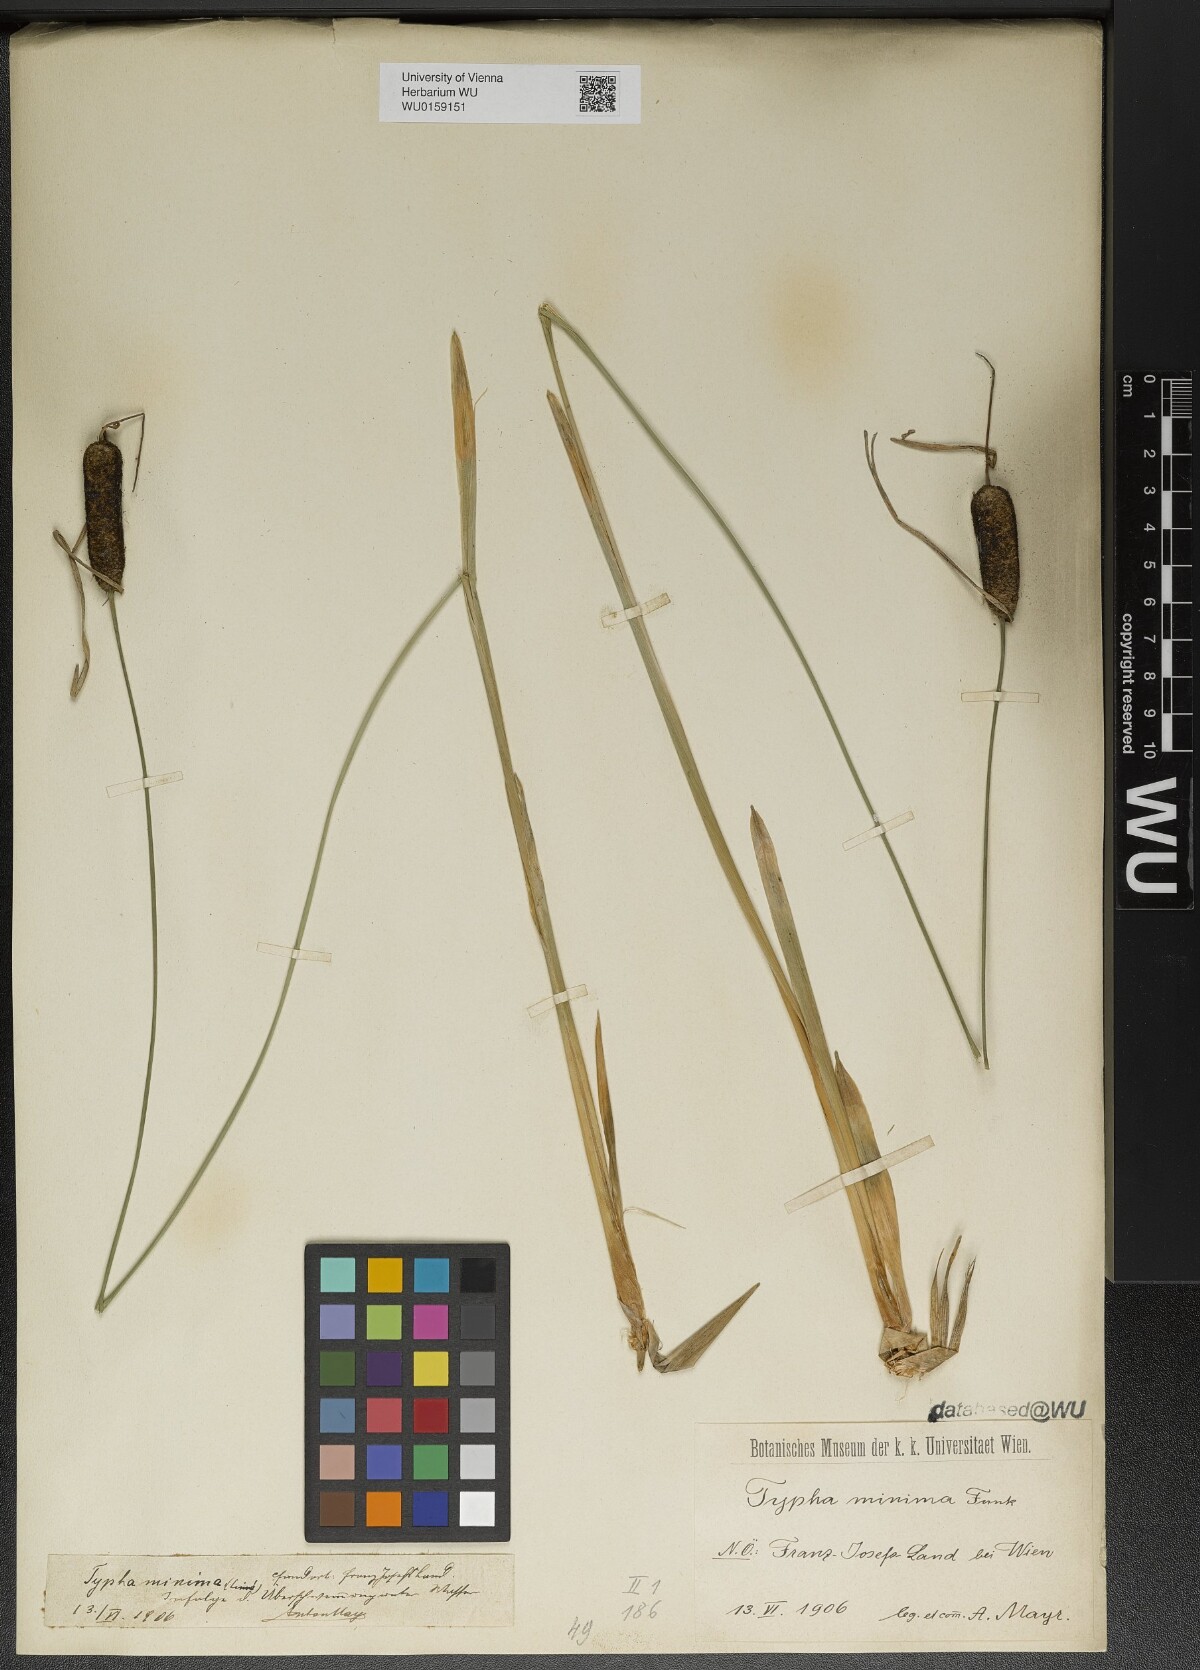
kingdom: Plantae
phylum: Tracheophyta
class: Liliopsida
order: Poales
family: Typhaceae
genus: Typha
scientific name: Typha minima
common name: Dwarf bulrush
